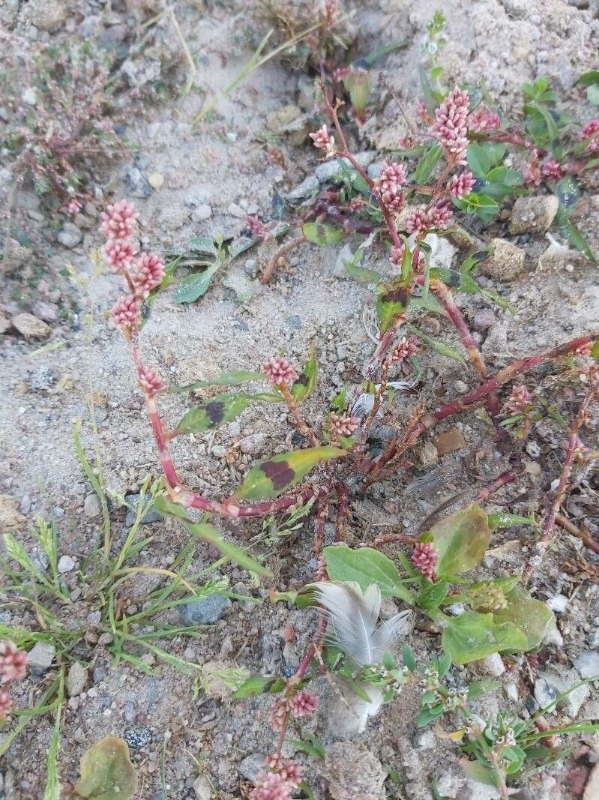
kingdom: Plantae
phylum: Tracheophyta
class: Magnoliopsida
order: Caryophyllales
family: Polygonaceae
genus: Persicaria
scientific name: Persicaria lapathifolia
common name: Knudet pileurt
